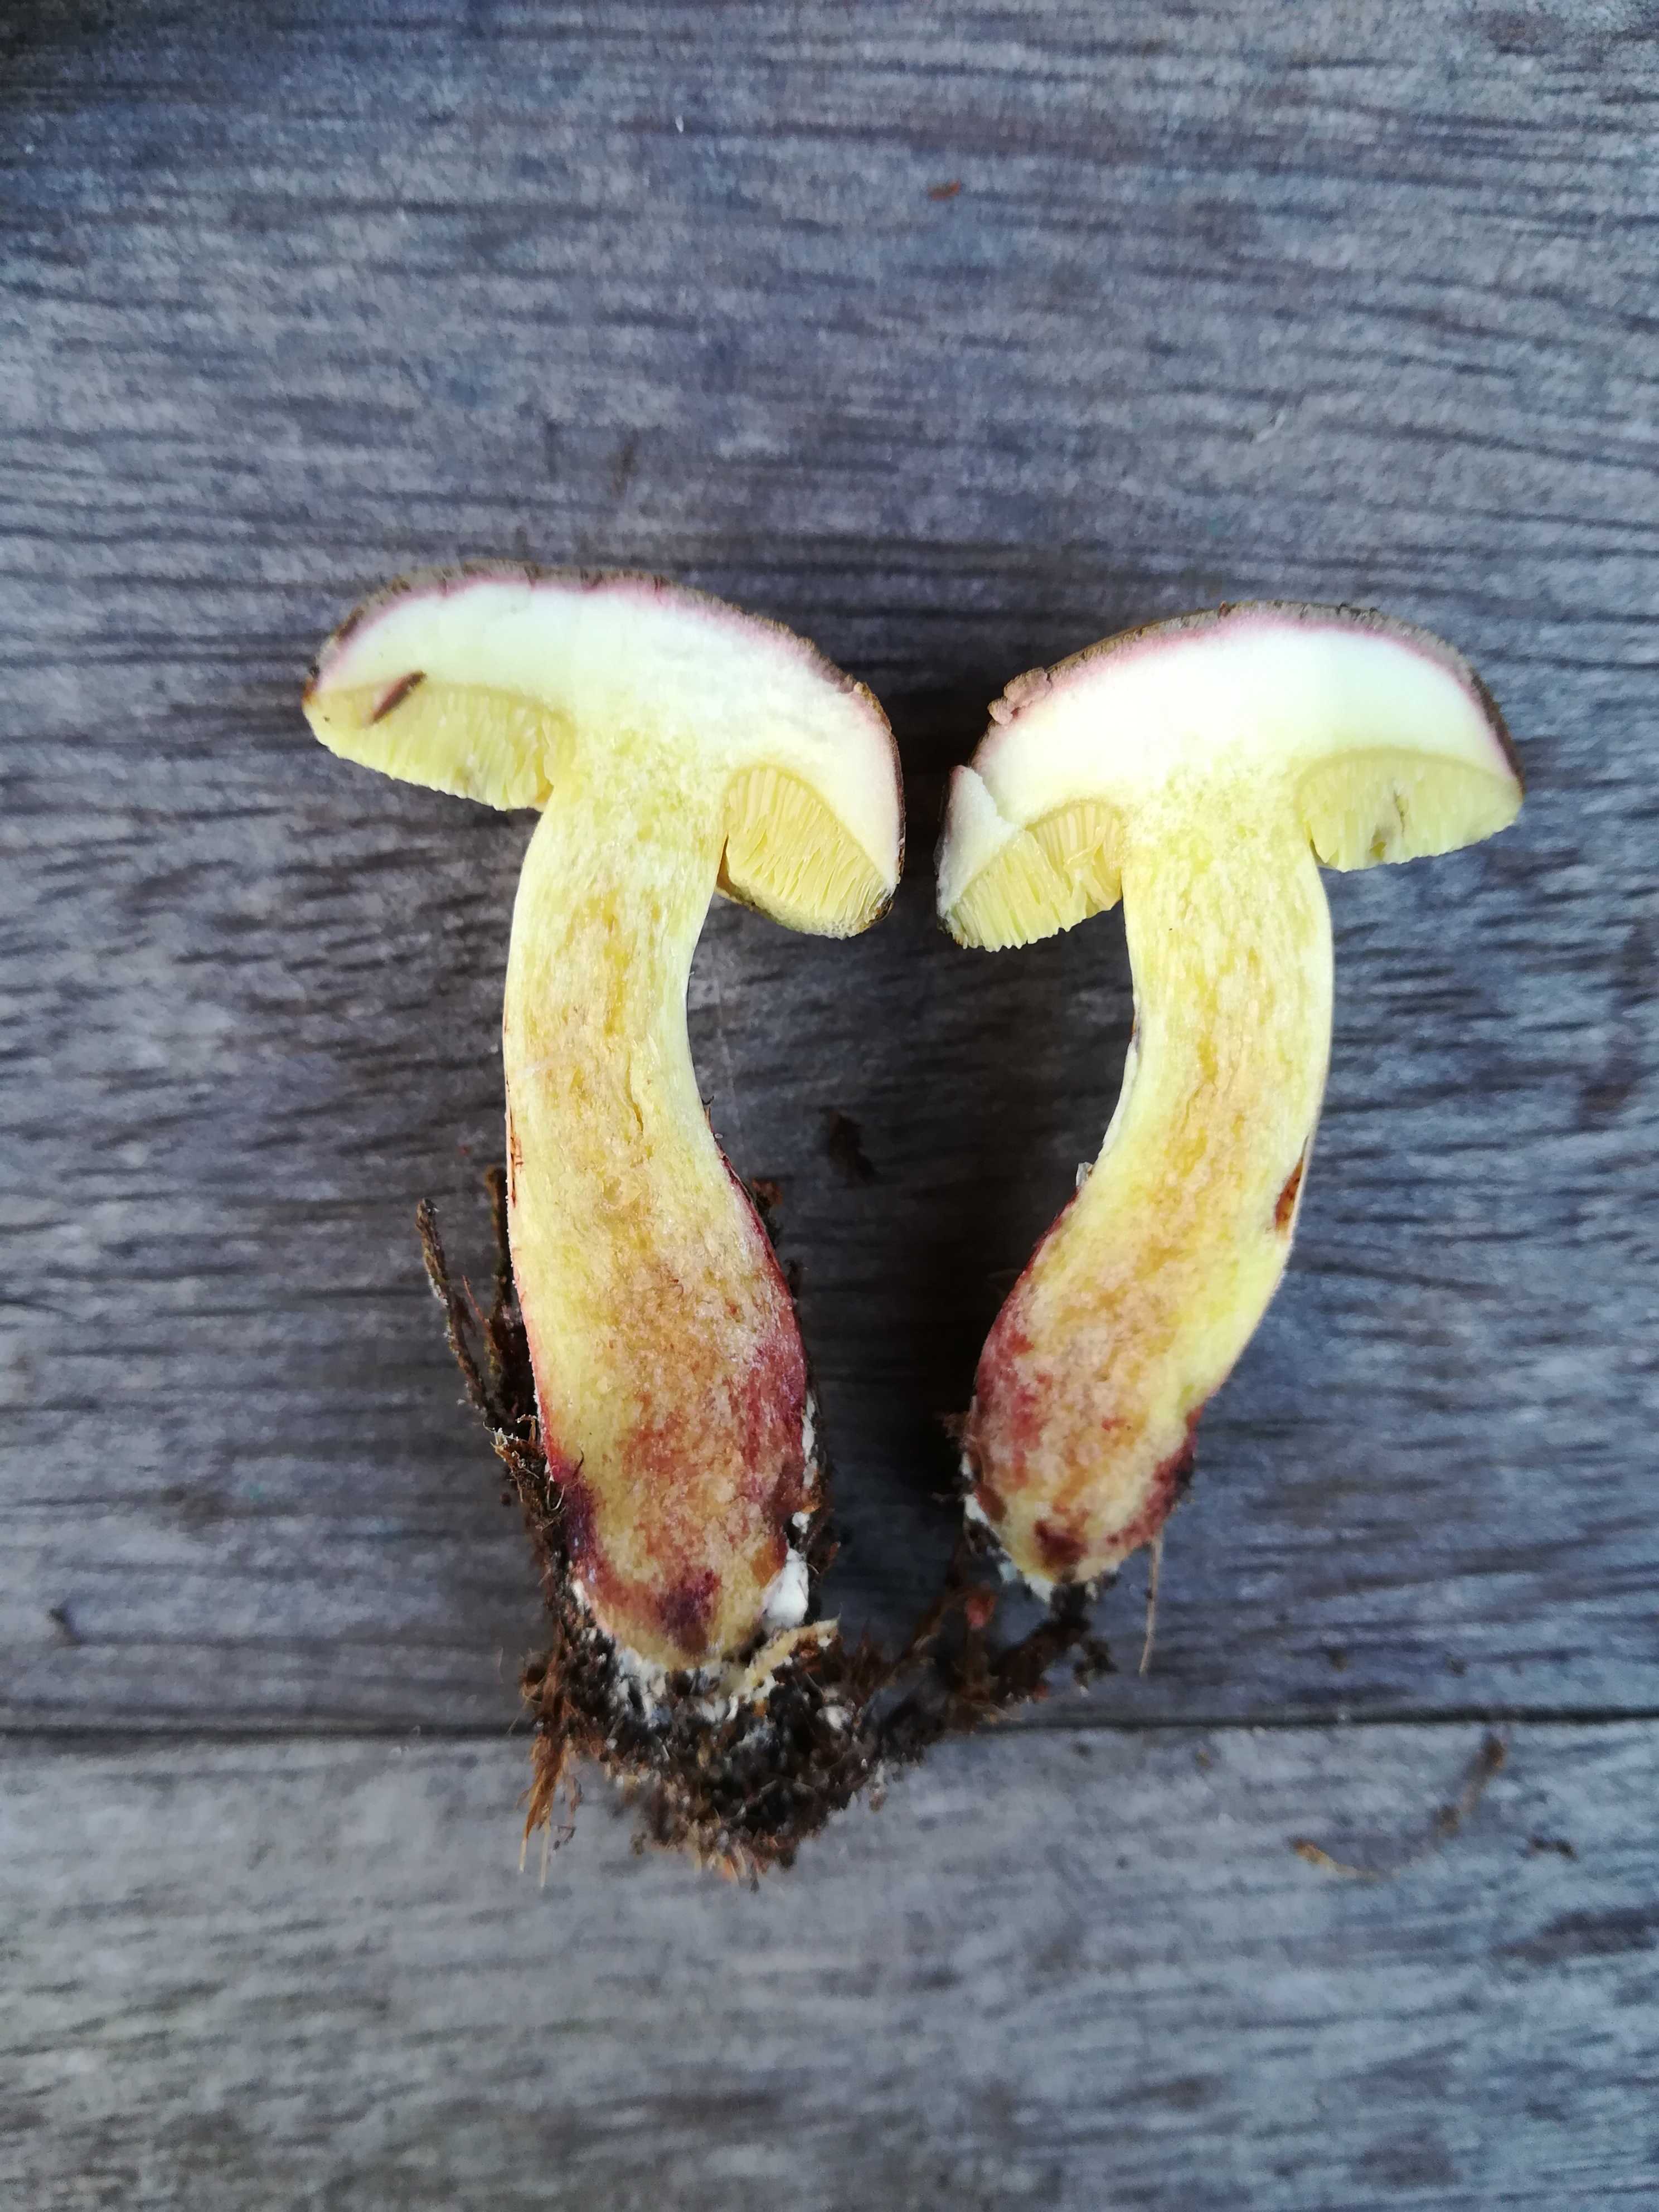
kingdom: Fungi
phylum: Basidiomycota
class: Agaricomycetes
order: Boletales
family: Boletaceae
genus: Xerocomellus
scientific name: Xerocomellus chrysenteron
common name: rødsprukken rørhat
